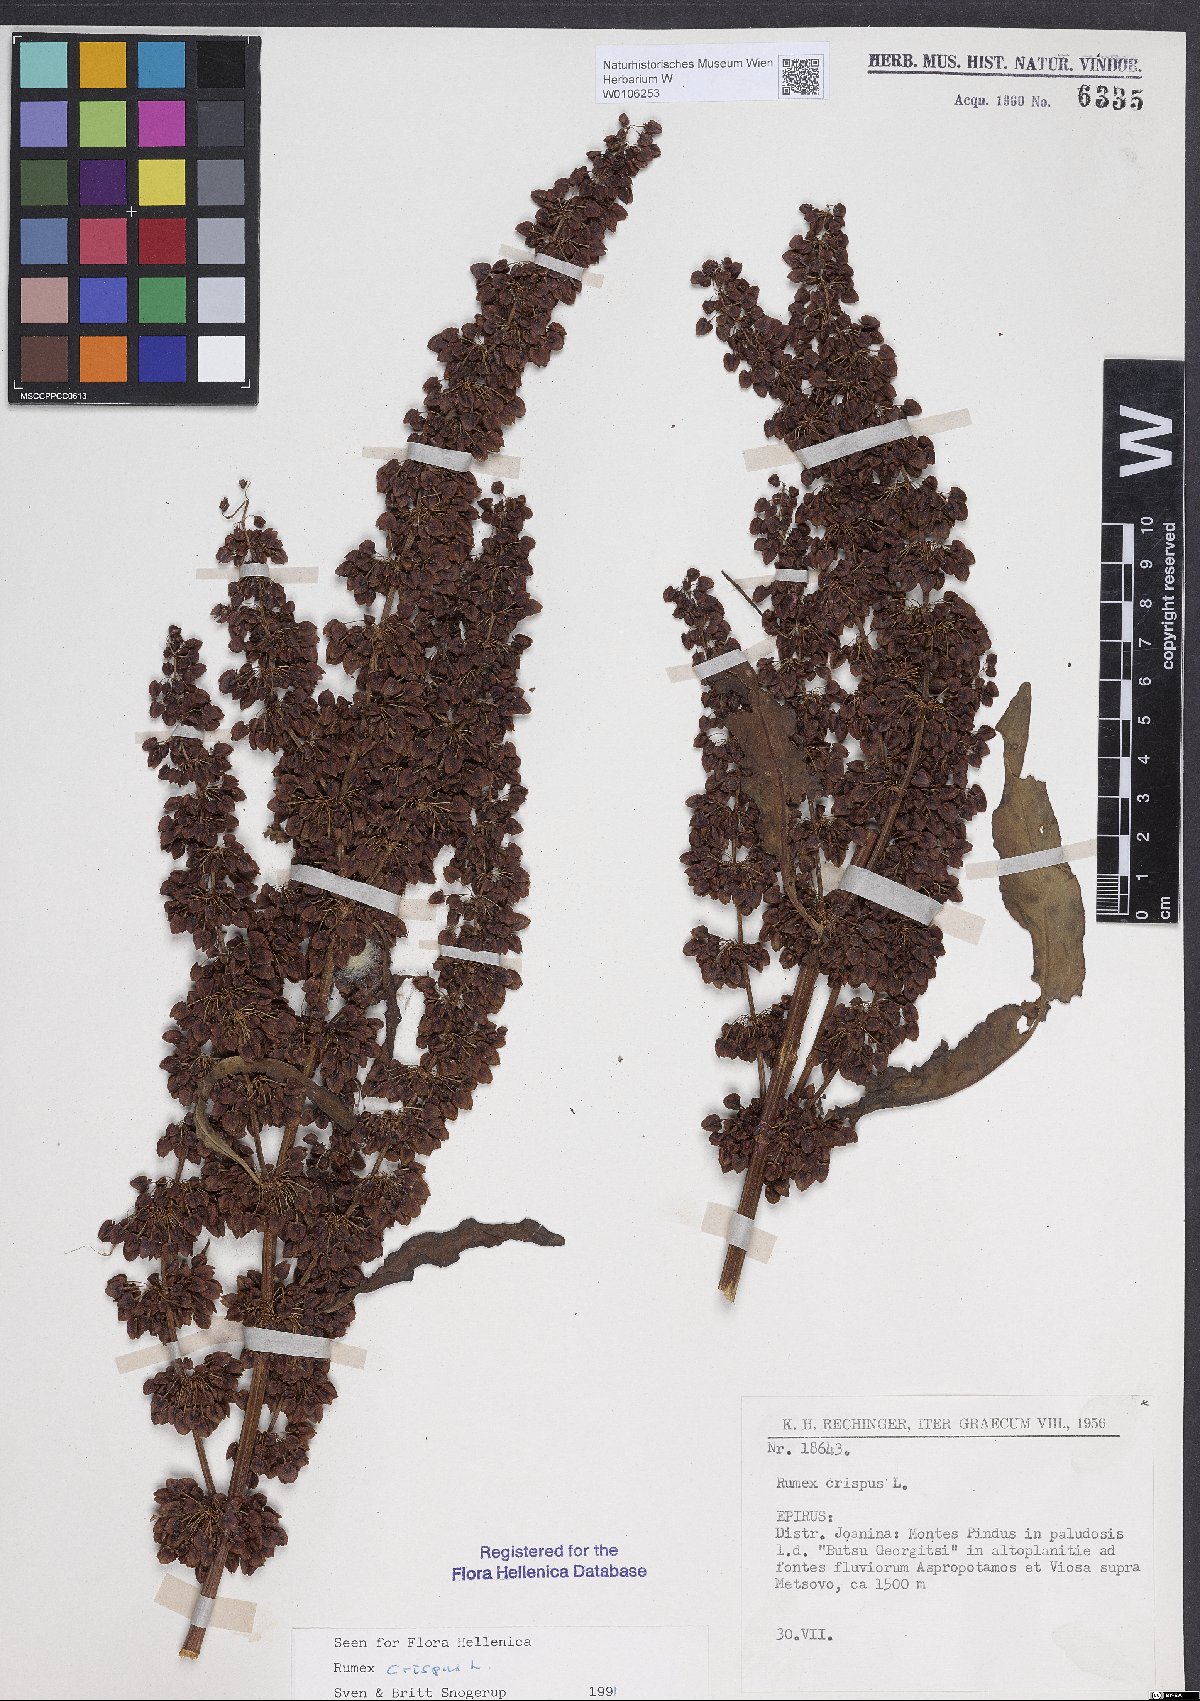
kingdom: Plantae
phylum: Tracheophyta
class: Magnoliopsida
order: Caryophyllales
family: Polygonaceae
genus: Rumex
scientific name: Rumex crispus
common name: Curled dock
